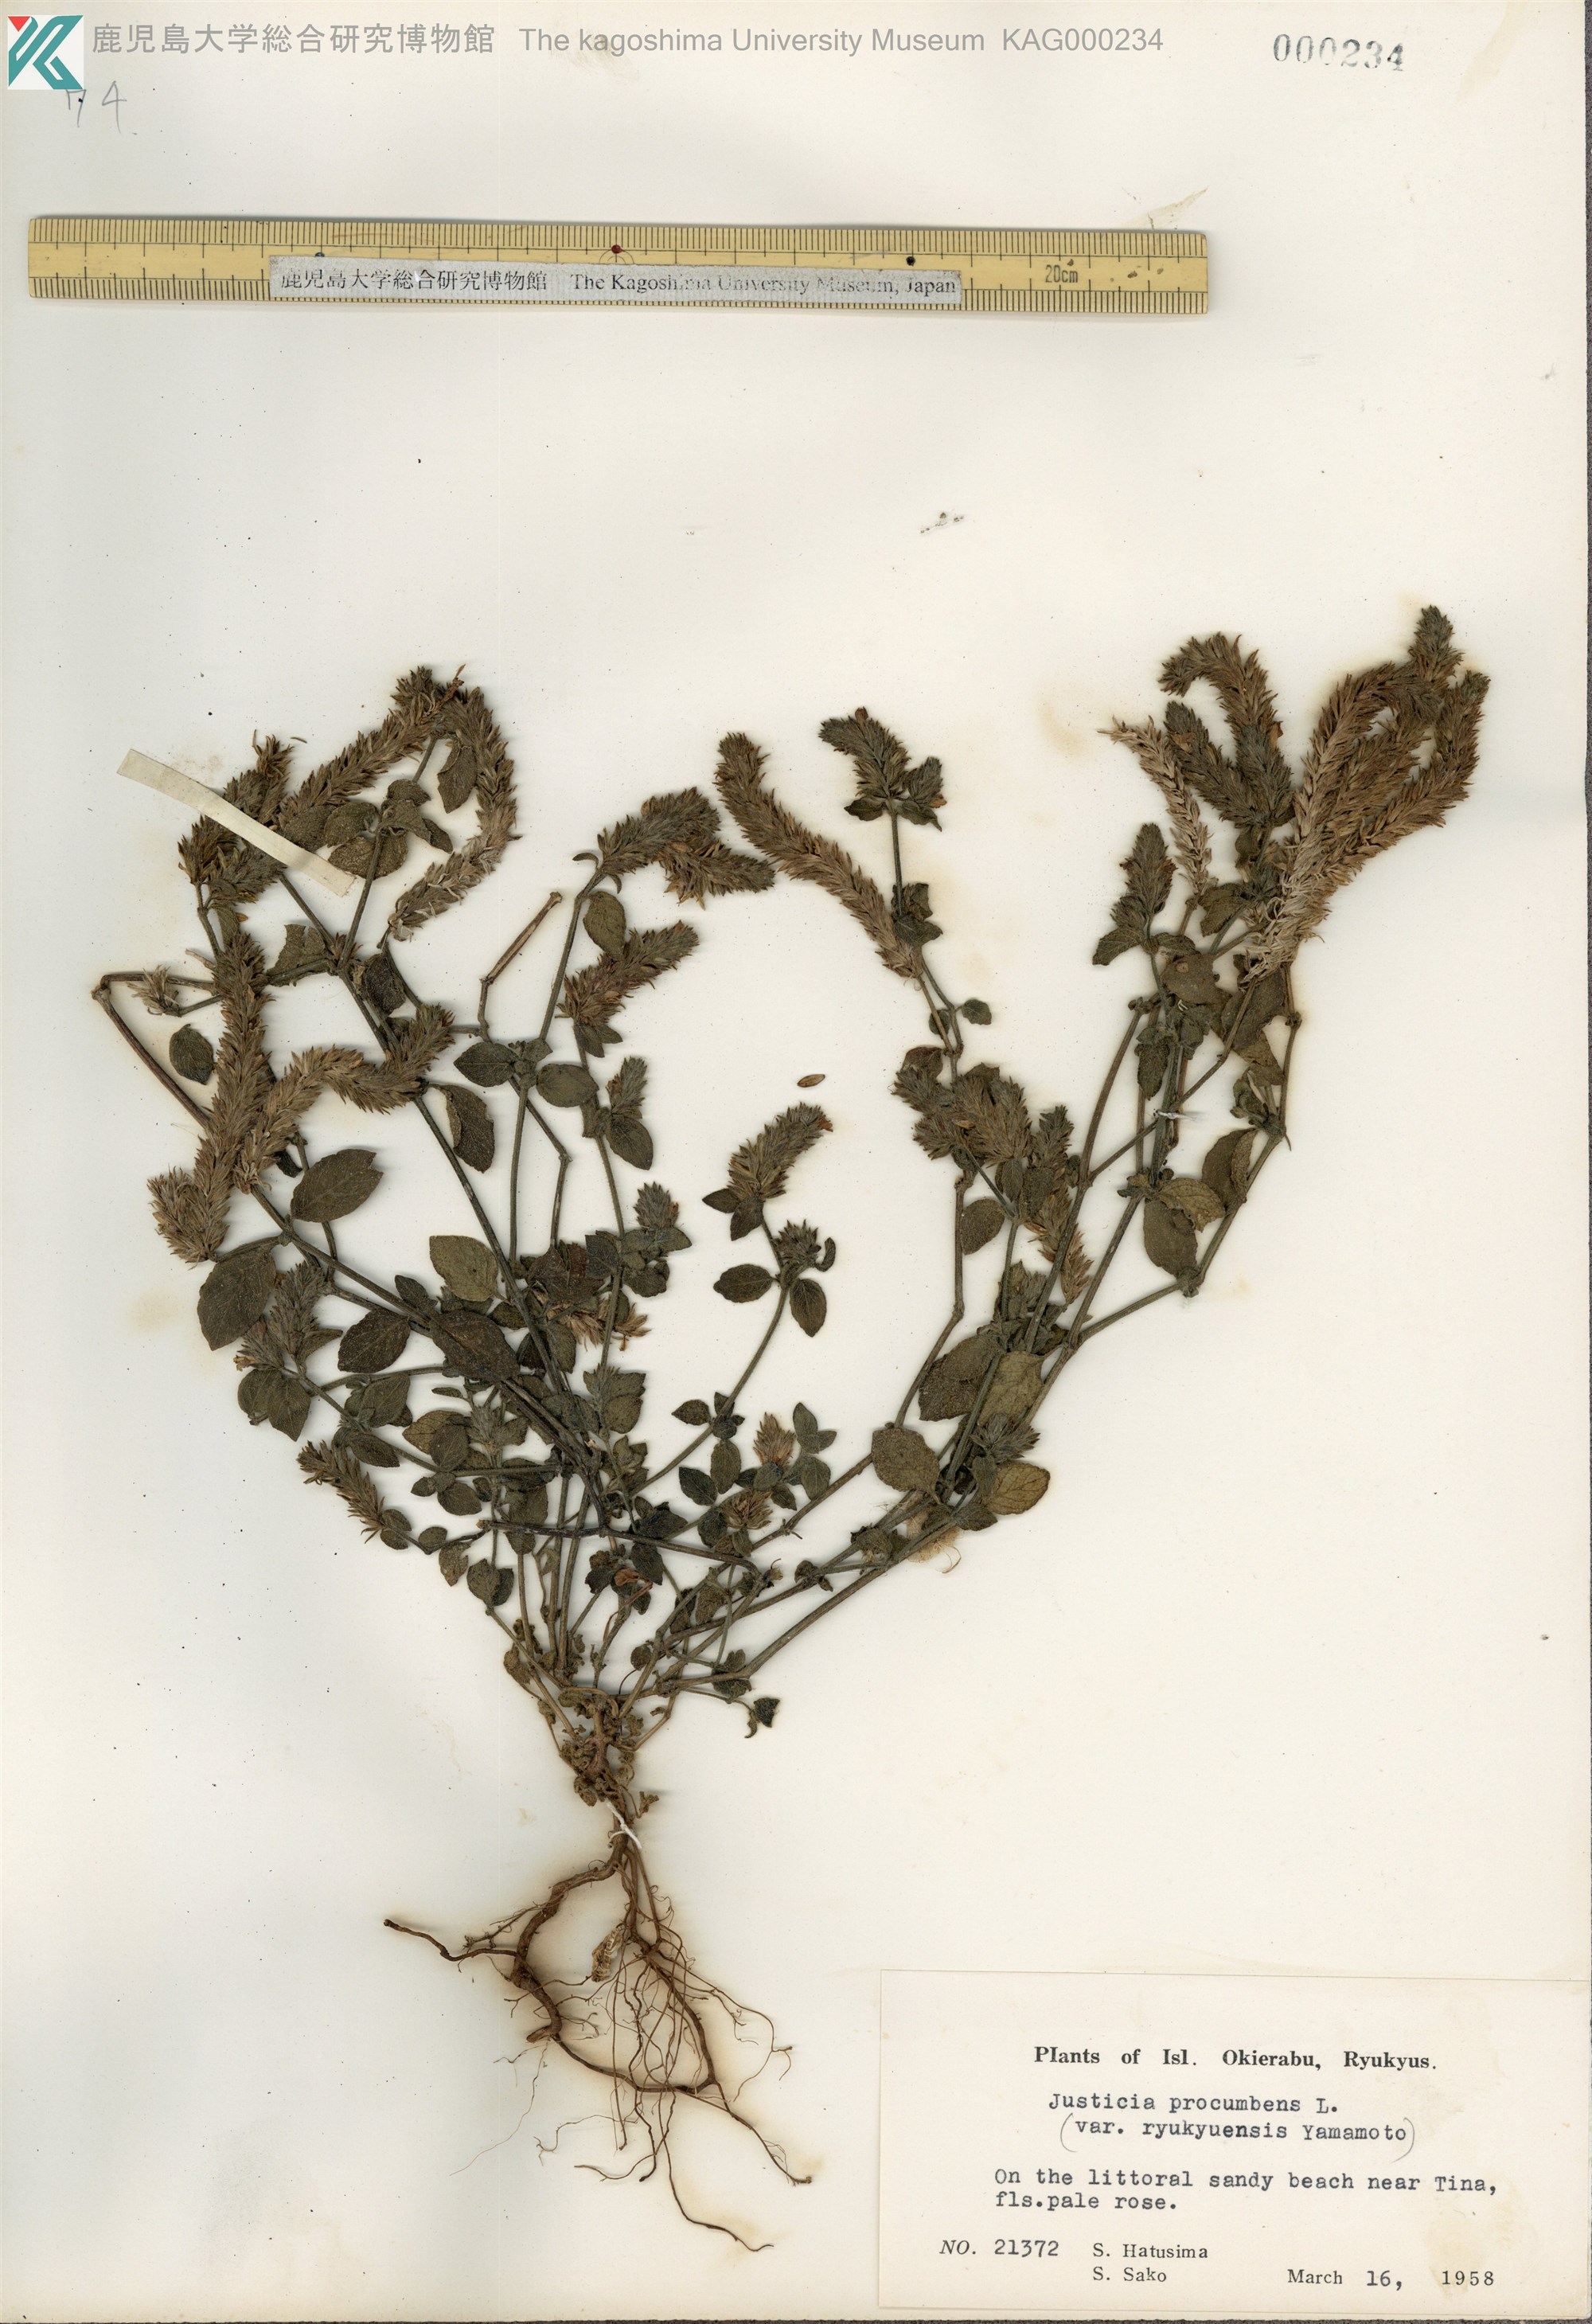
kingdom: Plantae
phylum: Tracheophyta
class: Magnoliopsida
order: Lamiales
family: Acanthaceae
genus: Rostellularia
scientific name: Rostellularia procumbens
